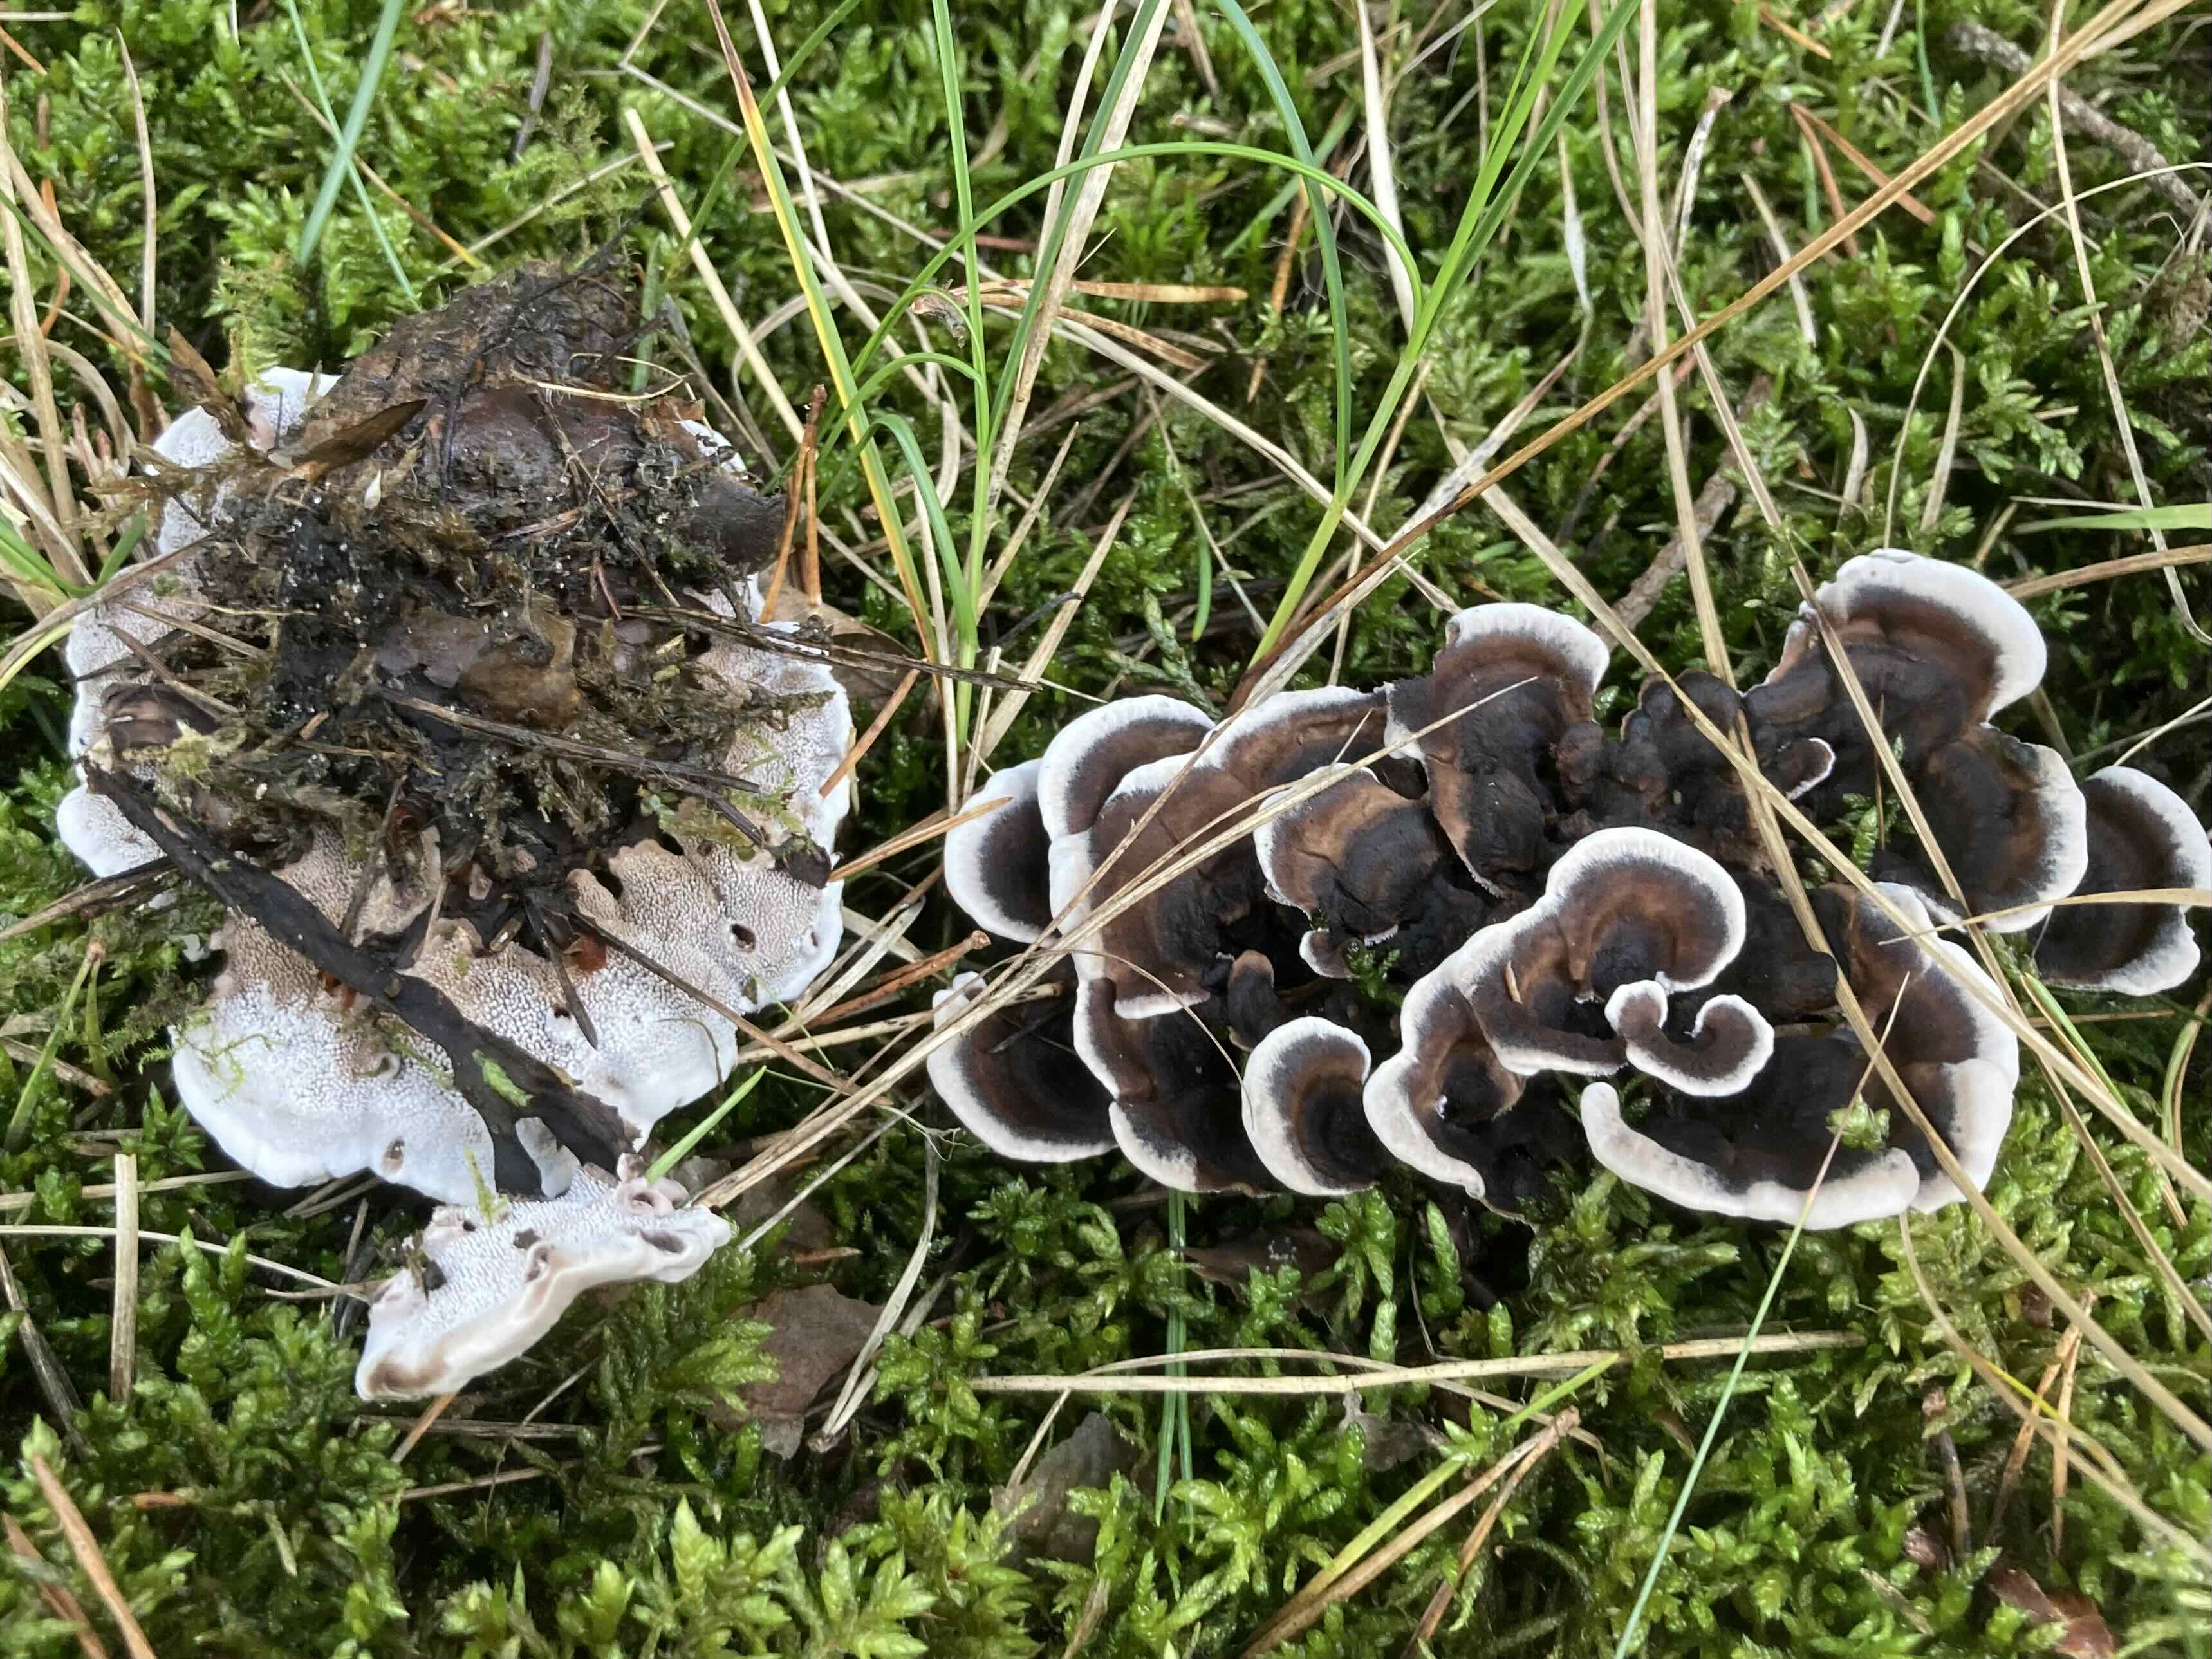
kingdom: Fungi
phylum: Basidiomycota
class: Agaricomycetes
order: Thelephorales
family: Thelephoraceae
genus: Phellodon
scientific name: Phellodon tomentosus
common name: vellugtende duftpigsvamp
